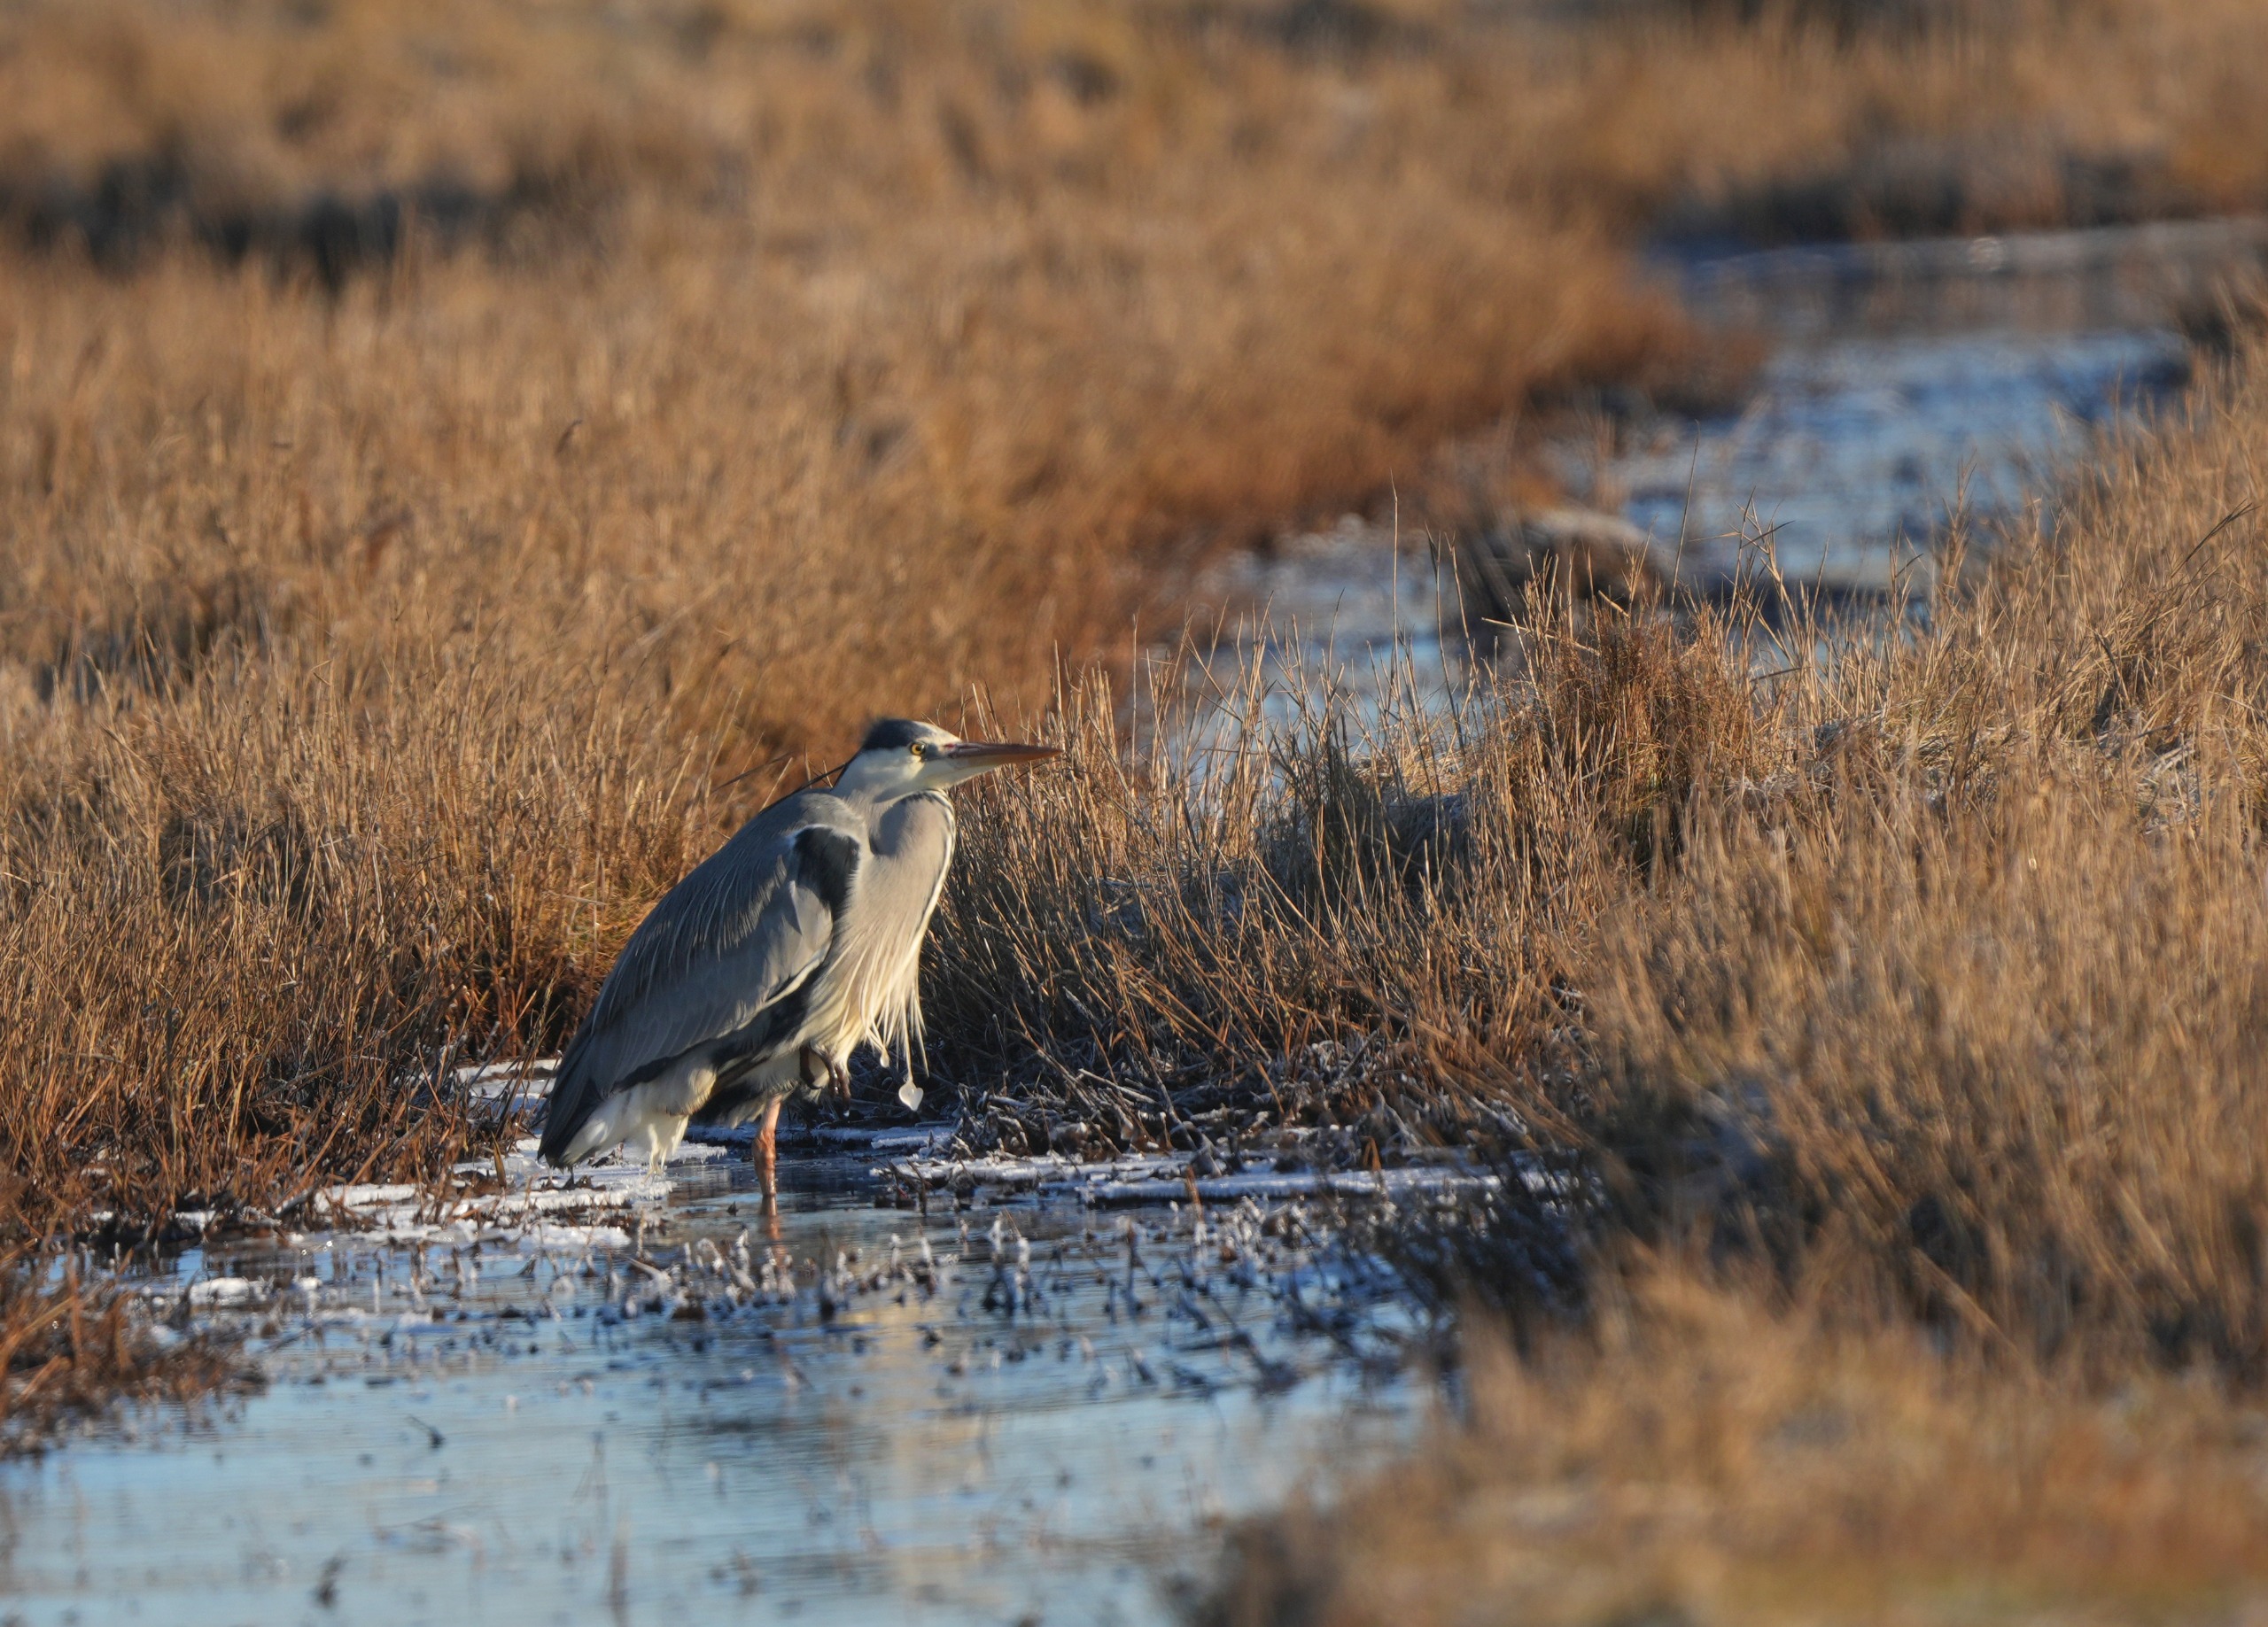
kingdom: Animalia
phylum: Chordata
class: Aves
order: Pelecaniformes
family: Ardeidae
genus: Ardea
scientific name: Ardea cinerea
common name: Fiskehejre
